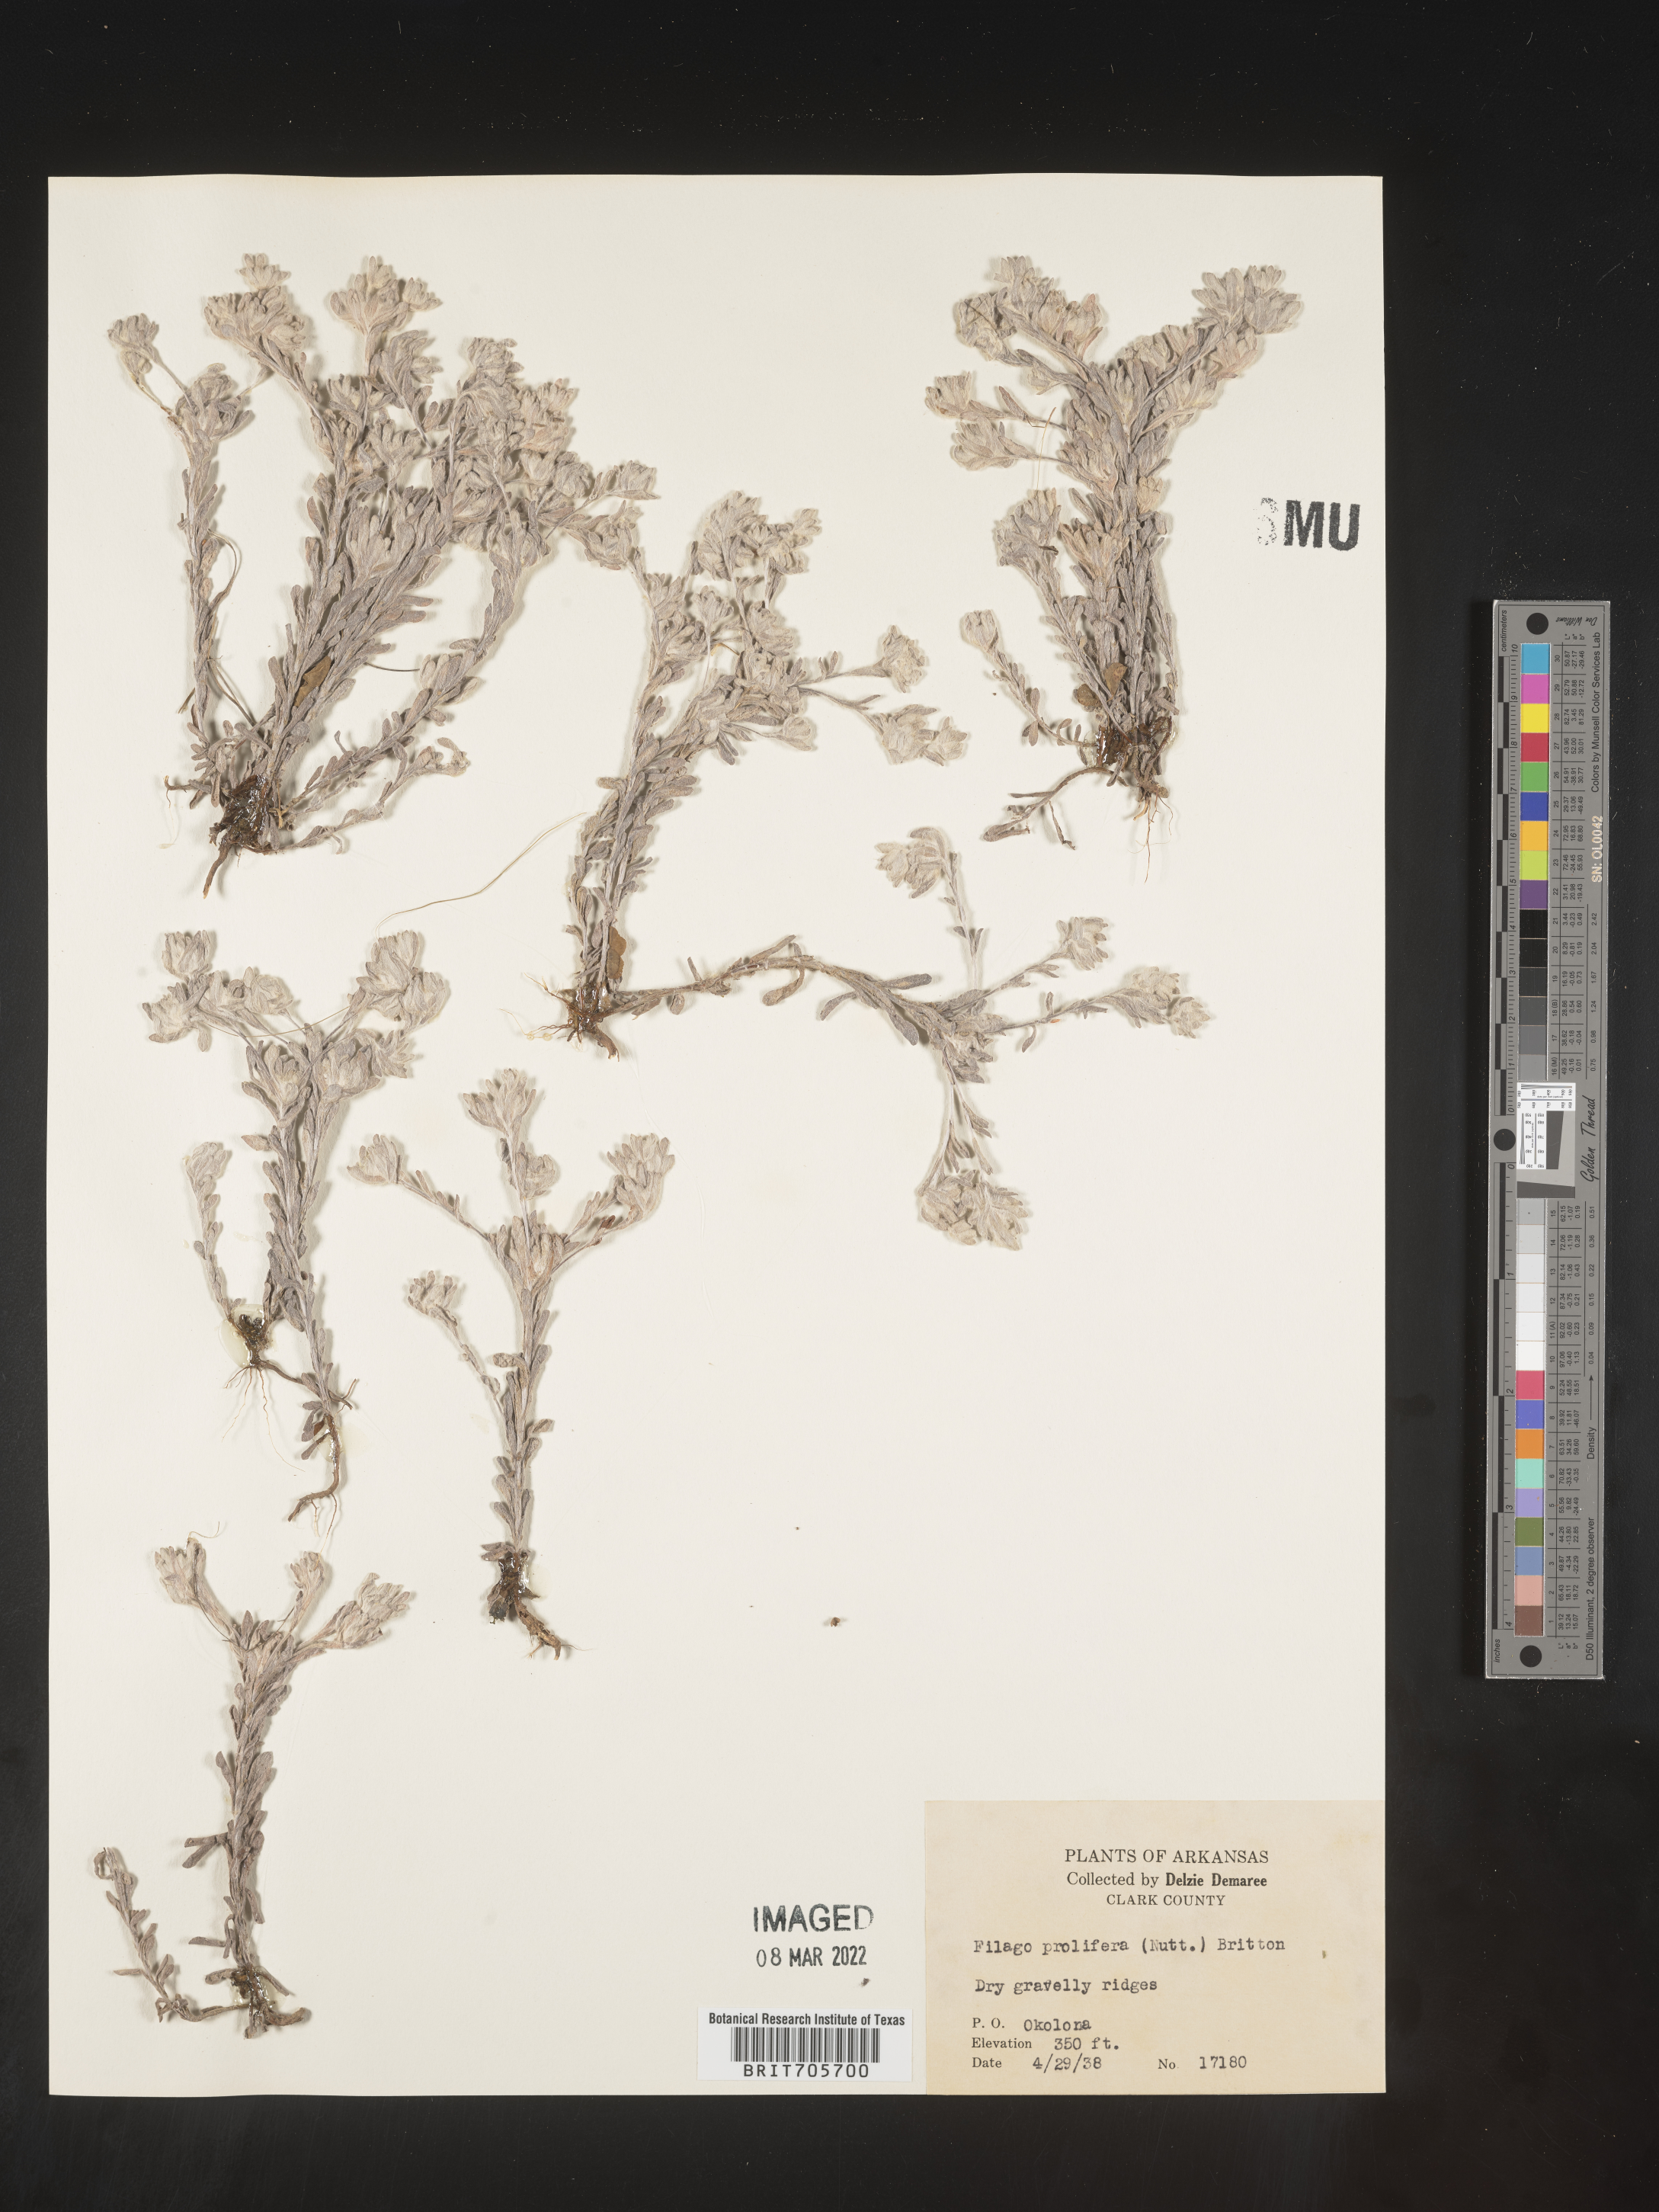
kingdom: Plantae
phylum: Tracheophyta
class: Magnoliopsida
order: Asterales
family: Asteraceae
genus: Diaperia
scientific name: Diaperia prolifera
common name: Big-head rabbit-tobacco
